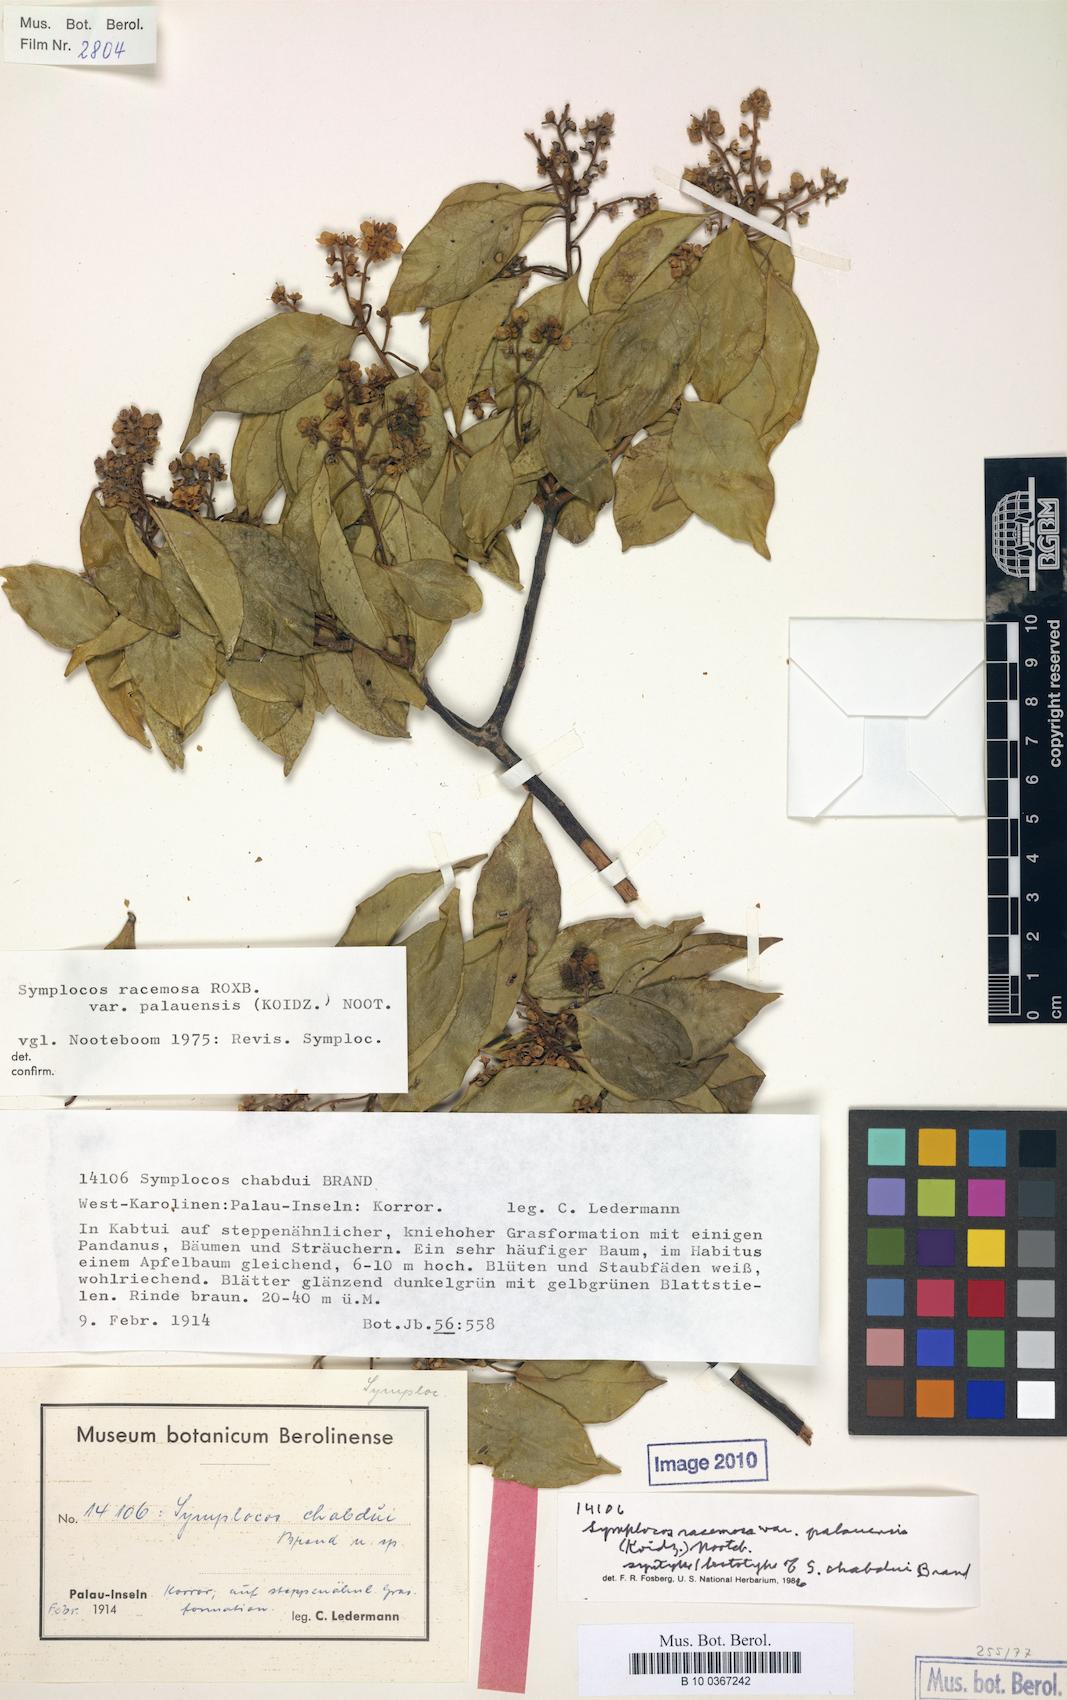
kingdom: Plantae
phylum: Tracheophyta
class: Magnoliopsida
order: Ericales
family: Symplocaceae
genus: Symplocos
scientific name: Symplocos racemosa
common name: Lodhtree
